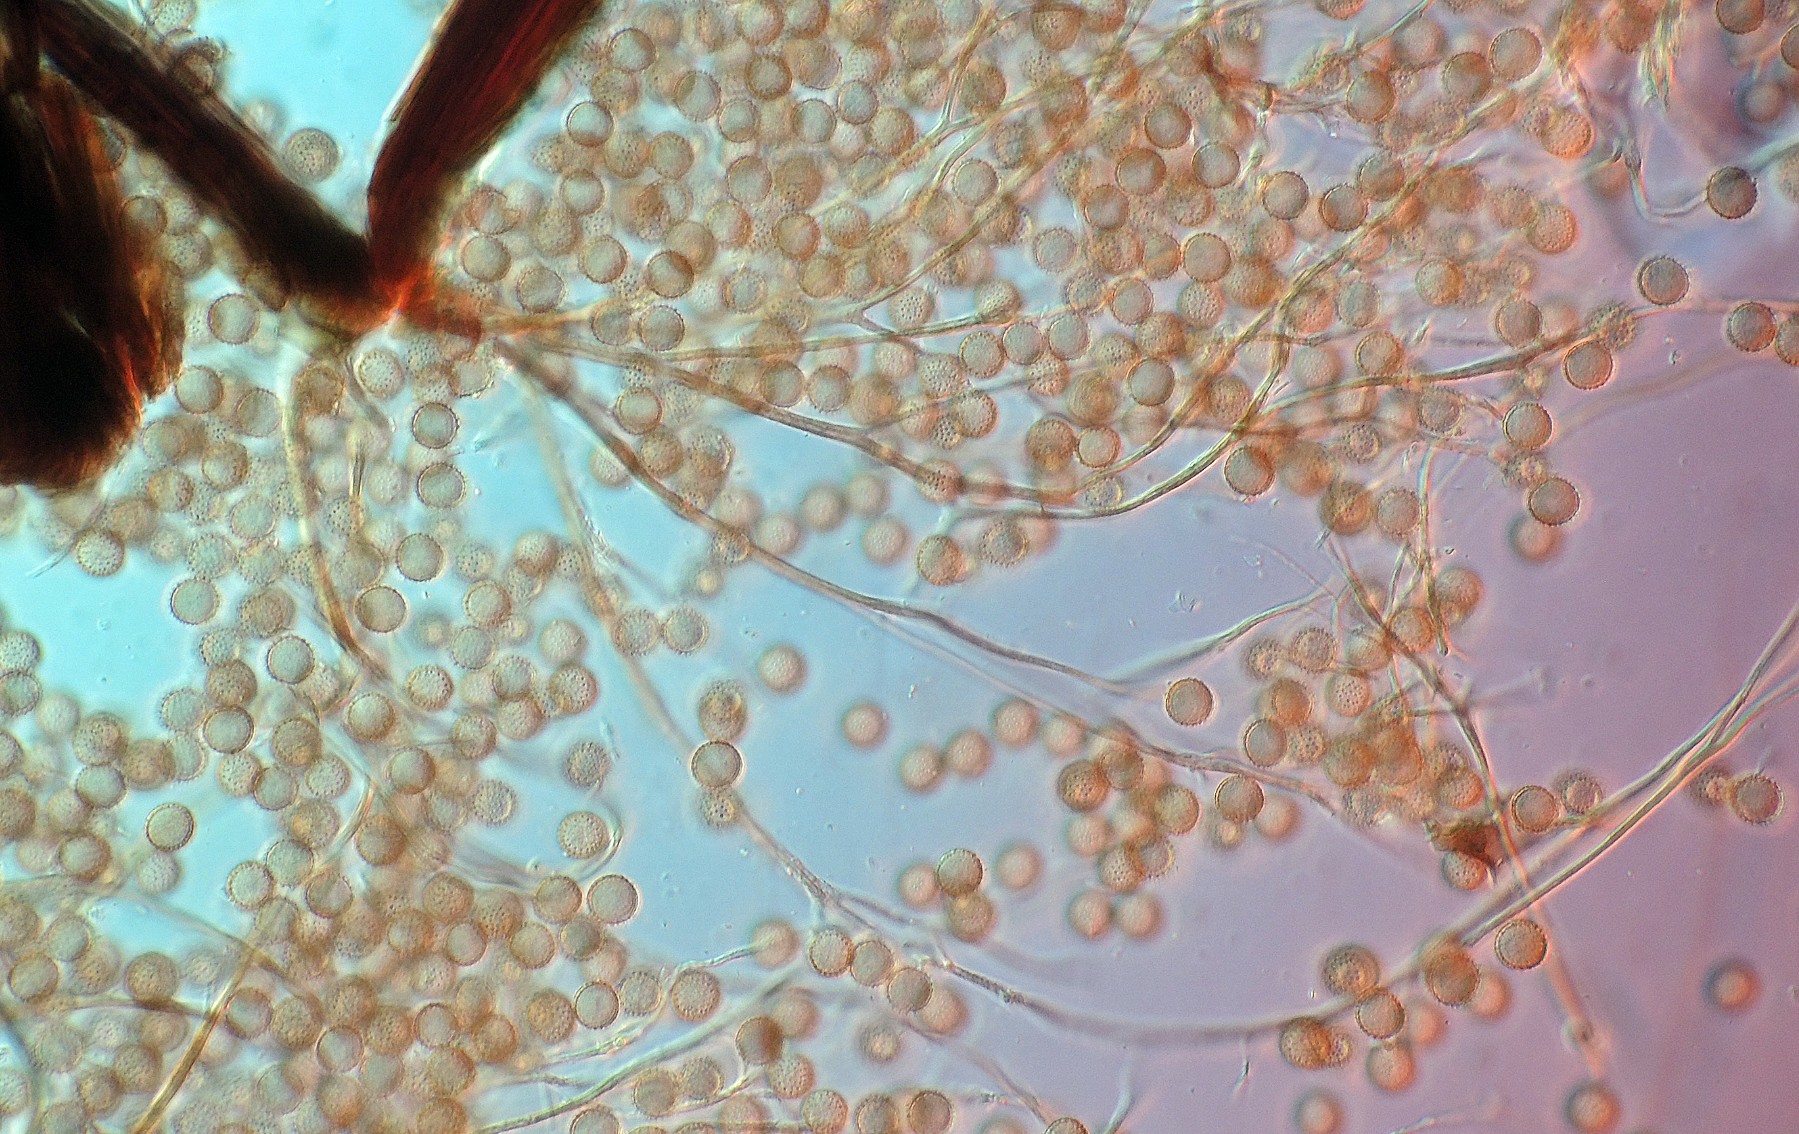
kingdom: Protozoa
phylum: Mycetozoa
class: Myxomycetes
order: Stemonitidales
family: Stemonitidaceae
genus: Lamproderma
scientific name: Lamproderma scintillans
